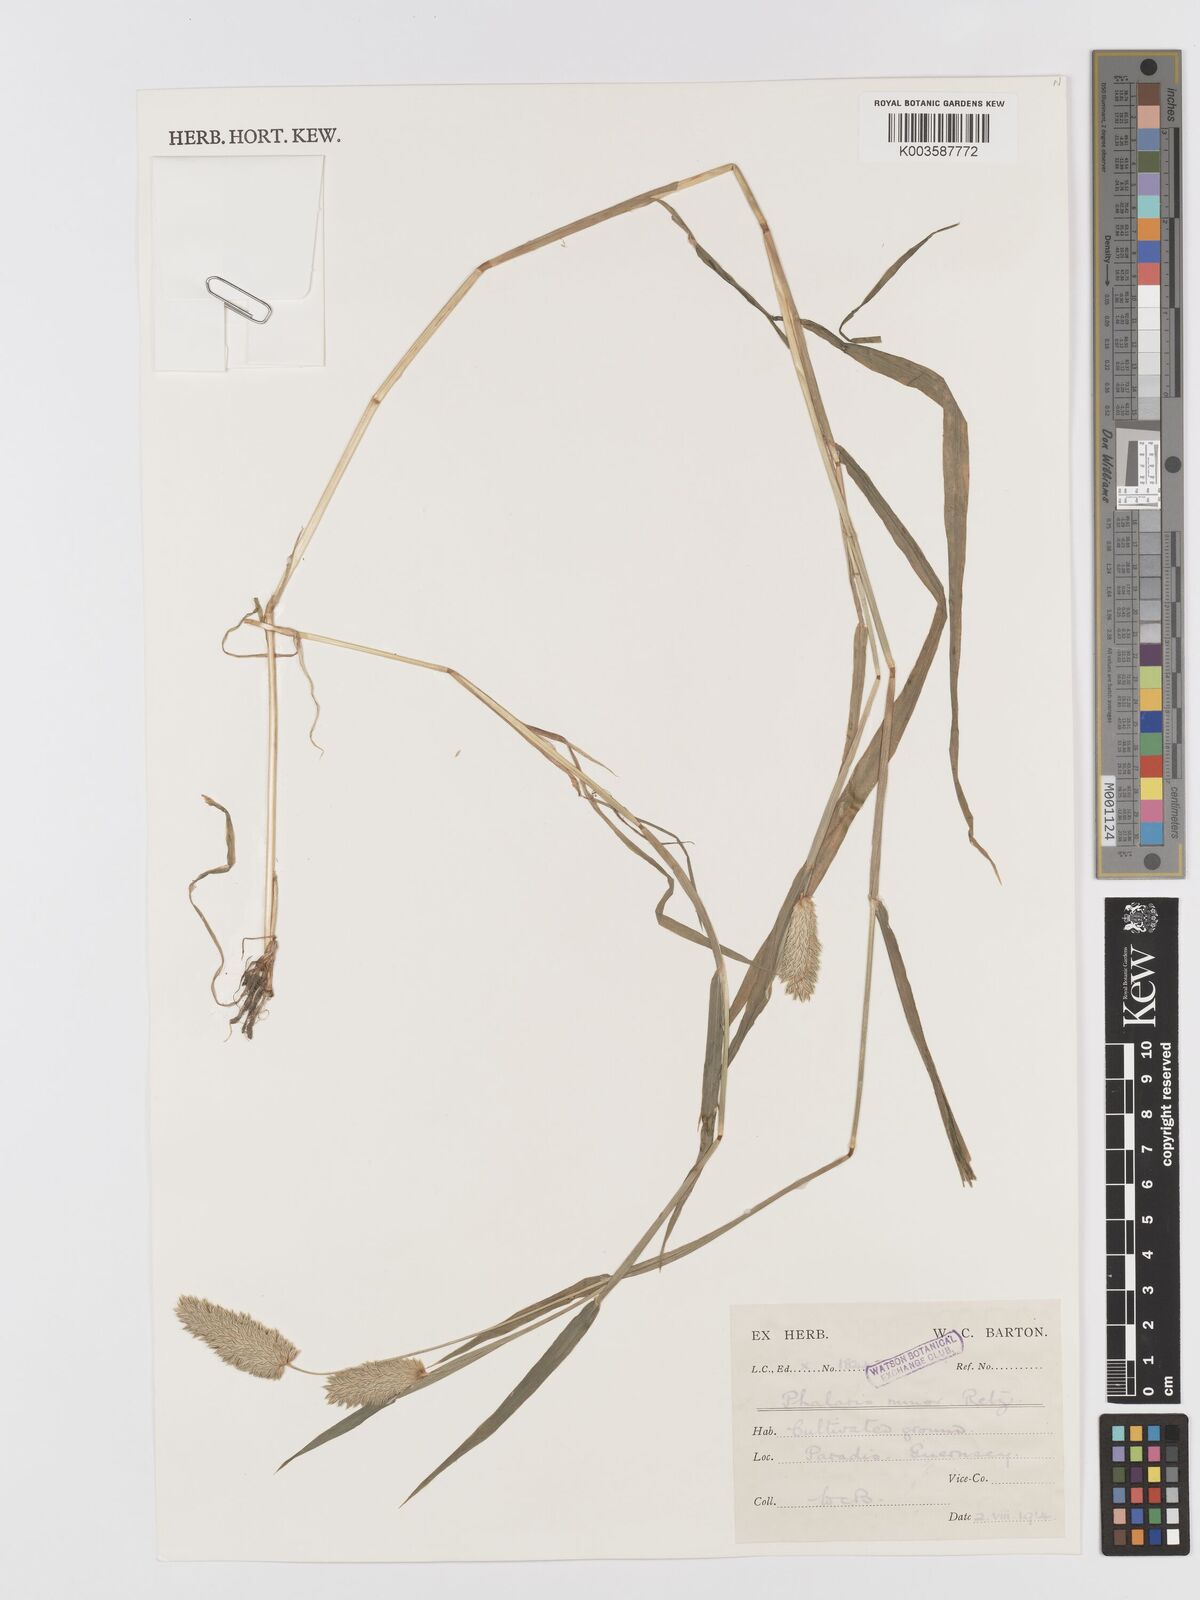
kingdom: Plantae
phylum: Tracheophyta
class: Liliopsida
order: Poales
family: Poaceae
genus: Phalaris
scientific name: Phalaris minor
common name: Littleseed canarygrass
